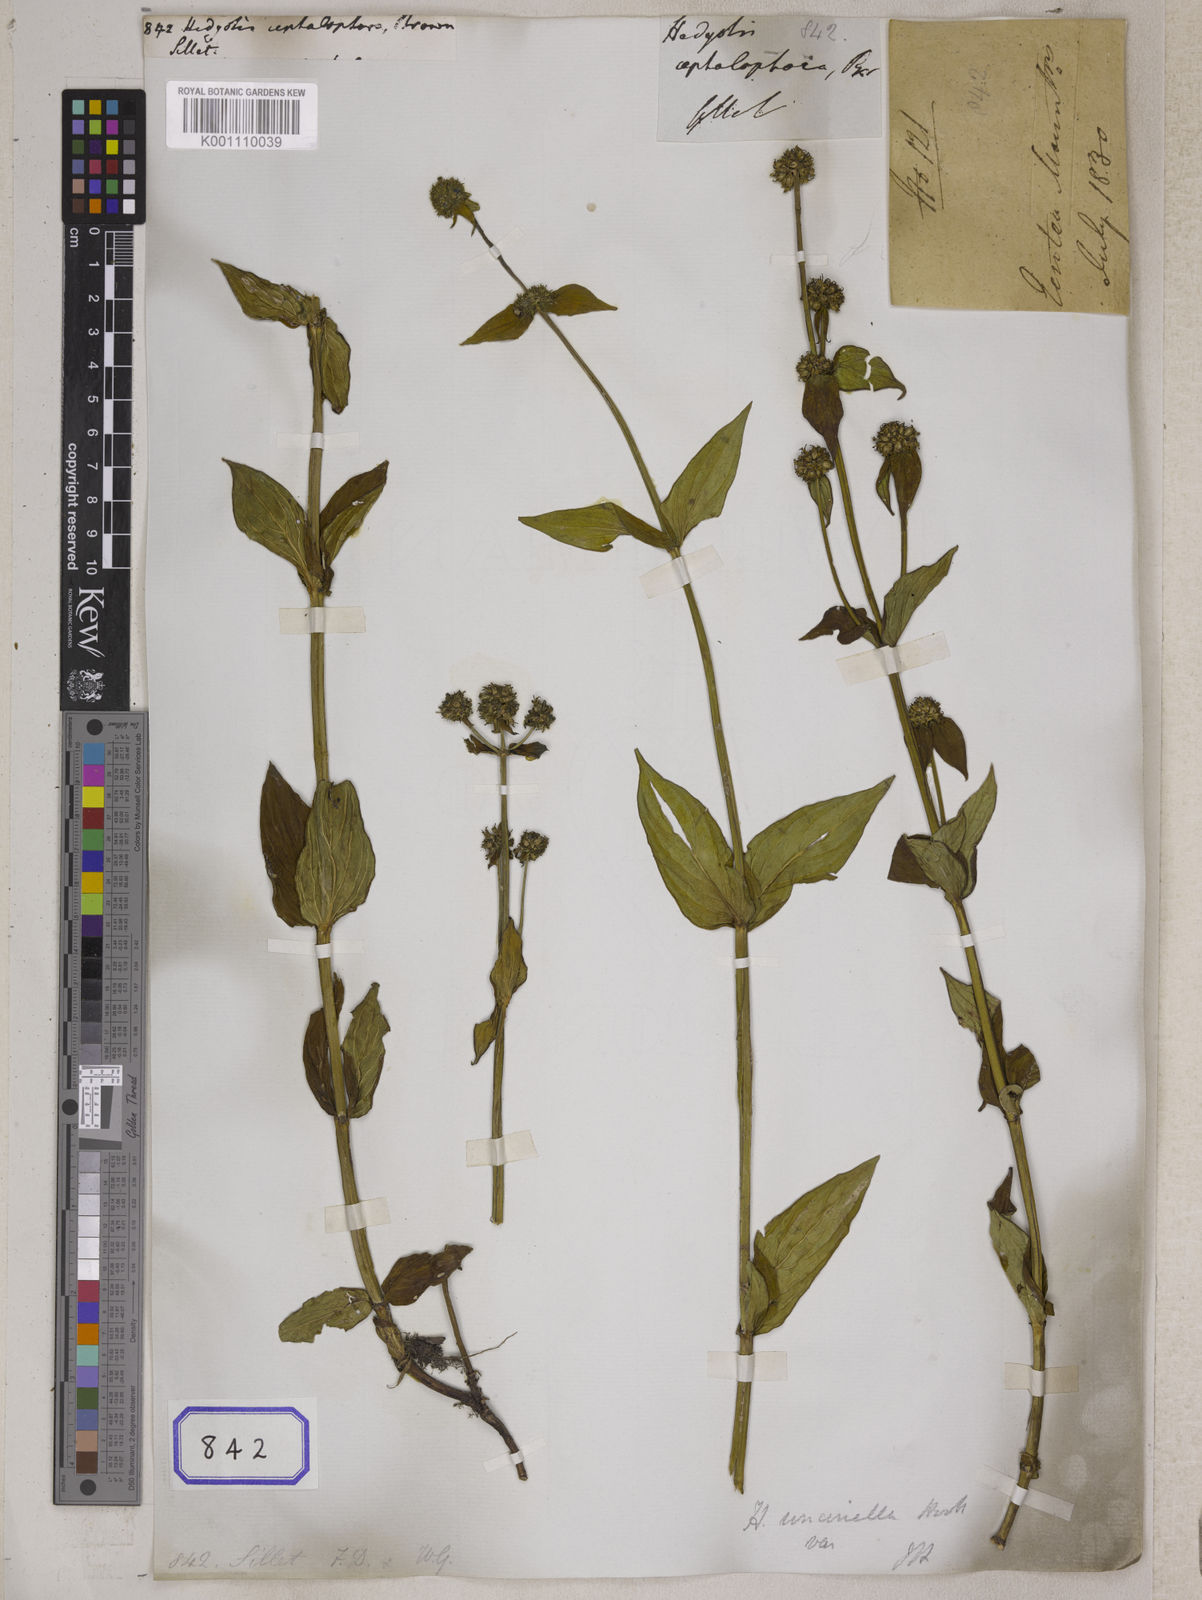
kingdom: Plantae
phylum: Tracheophyta
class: Magnoliopsida
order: Gentianales
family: Rubiaceae
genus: Hedyotis
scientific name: Hedyotis
